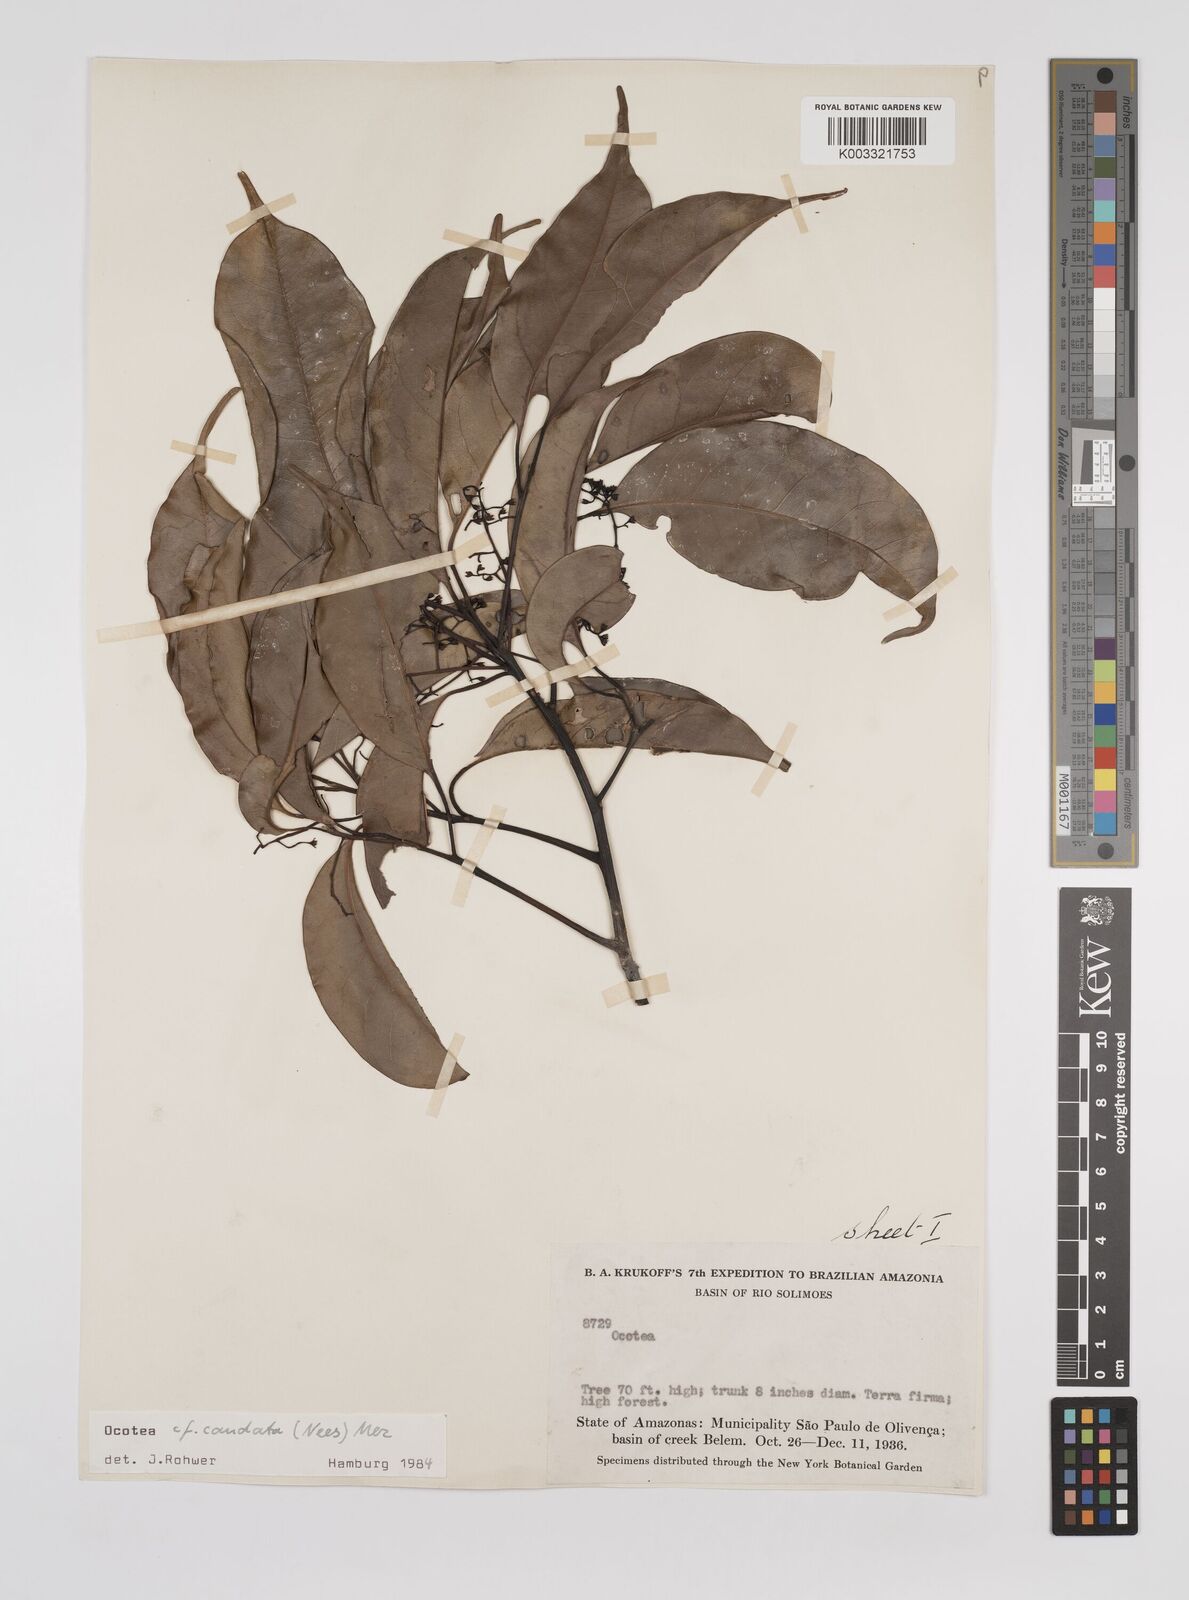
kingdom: Plantae
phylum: Tracheophyta
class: Magnoliopsida
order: Laurales
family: Lauraceae
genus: Ocotea
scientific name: Ocotea leptobotra
